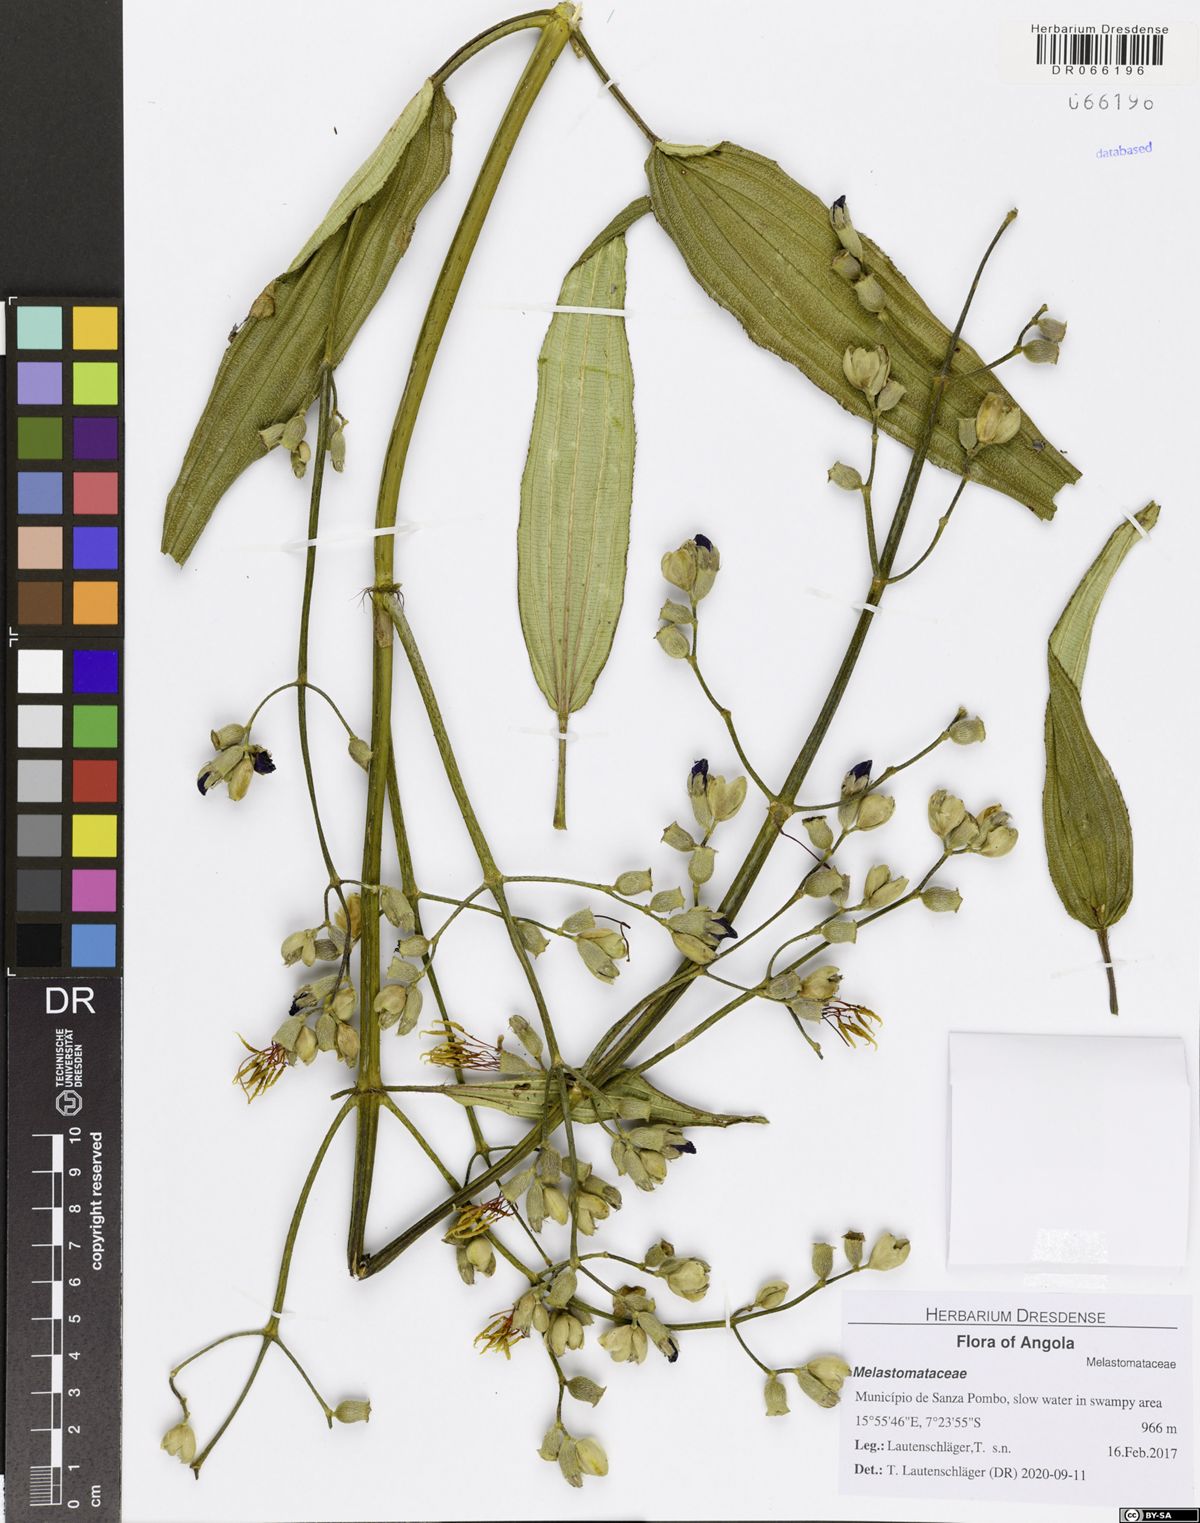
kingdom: Plantae
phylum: Tracheophyta
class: Magnoliopsida
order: Myrtales
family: Melastomataceae
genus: Rosettea
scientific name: Rosettea thollonii
